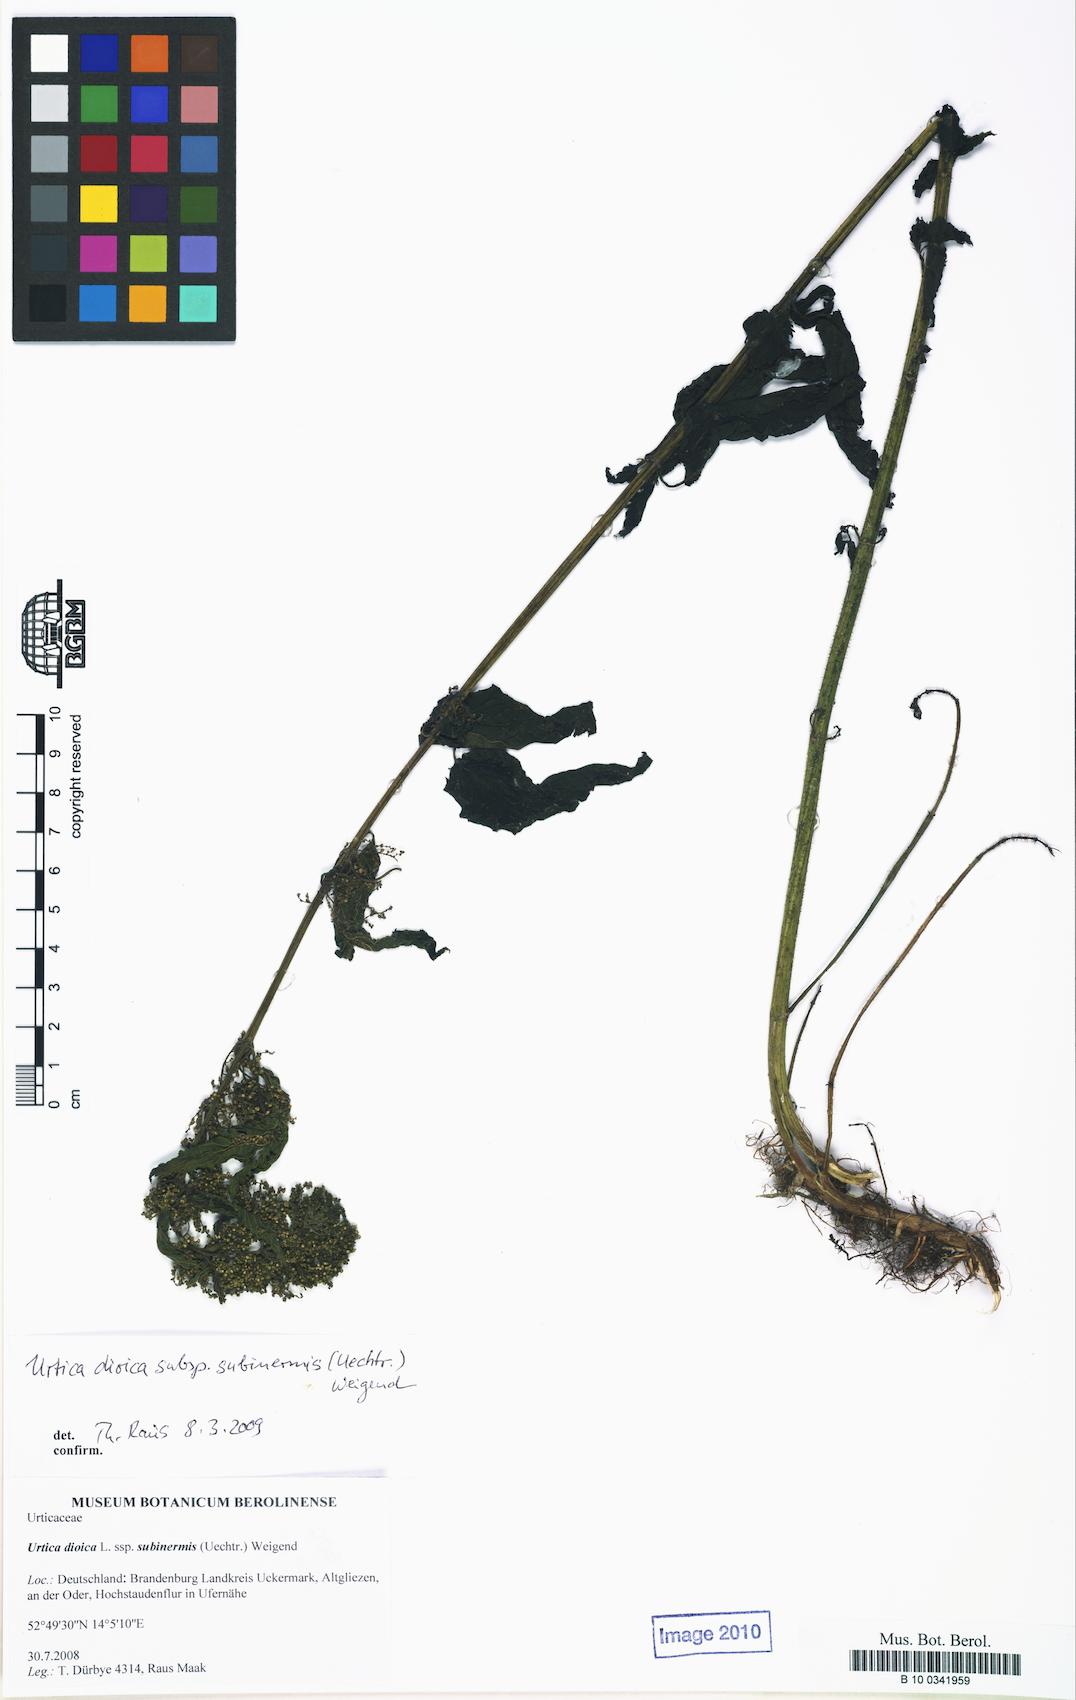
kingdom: Plantae
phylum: Tracheophyta
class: Magnoliopsida
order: Rosales
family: Urticaceae
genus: Urtica
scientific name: Urtica subinermis
